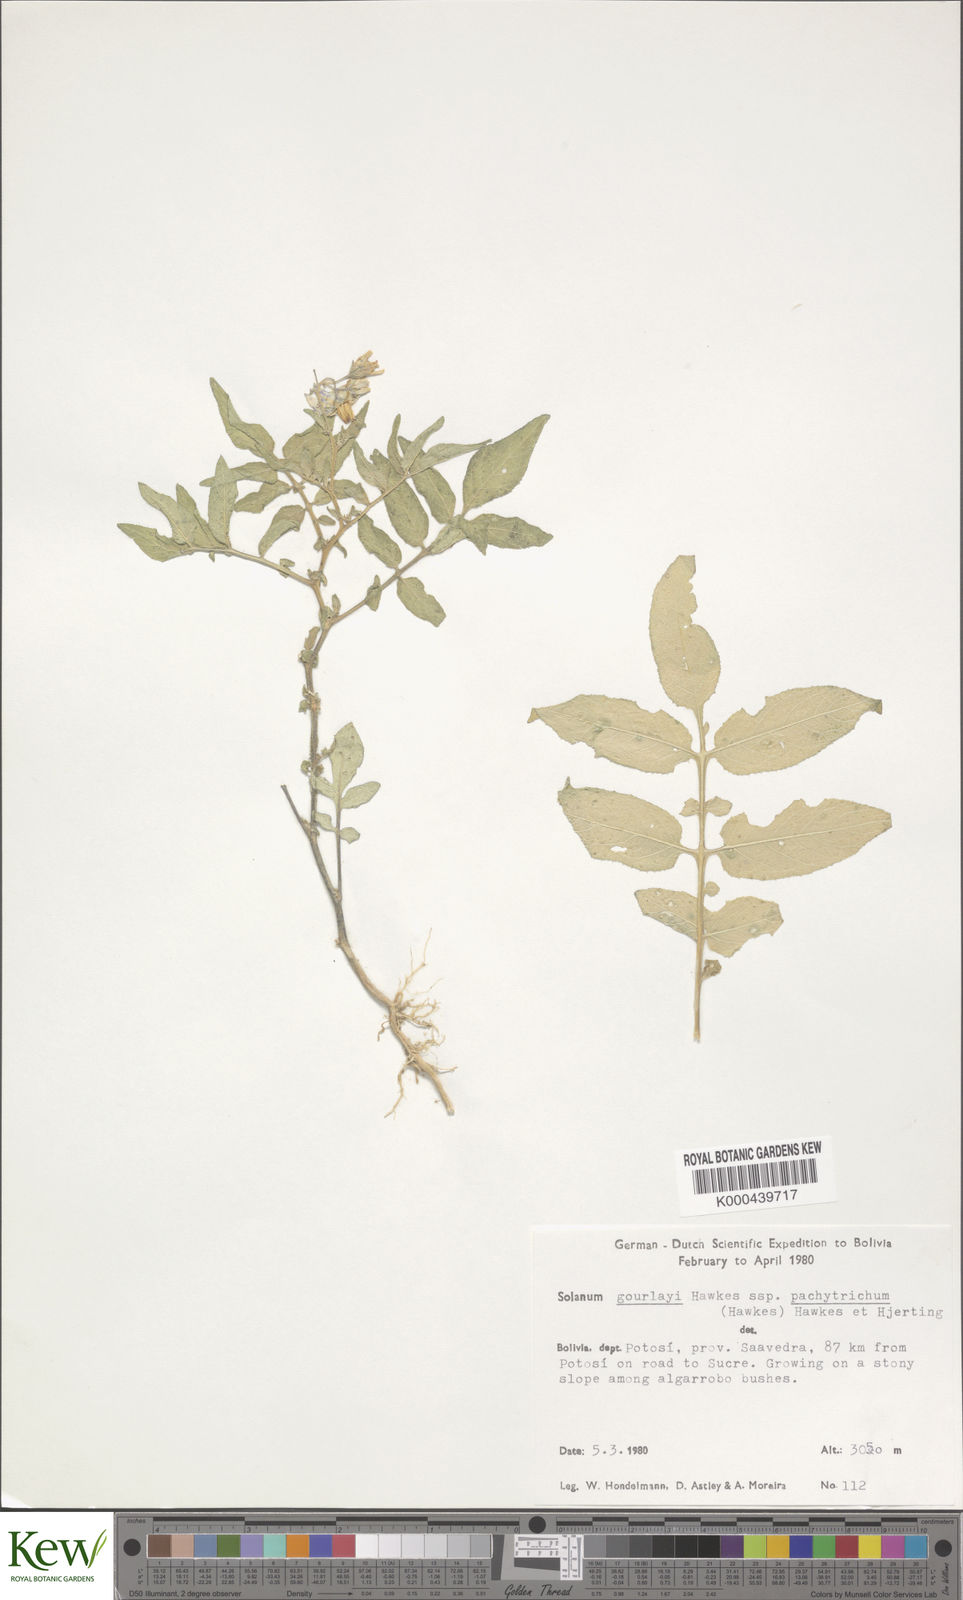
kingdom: Plantae
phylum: Tracheophyta
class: Magnoliopsida
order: Solanales
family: Solanaceae
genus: Solanum
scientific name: Solanum brevicaule
